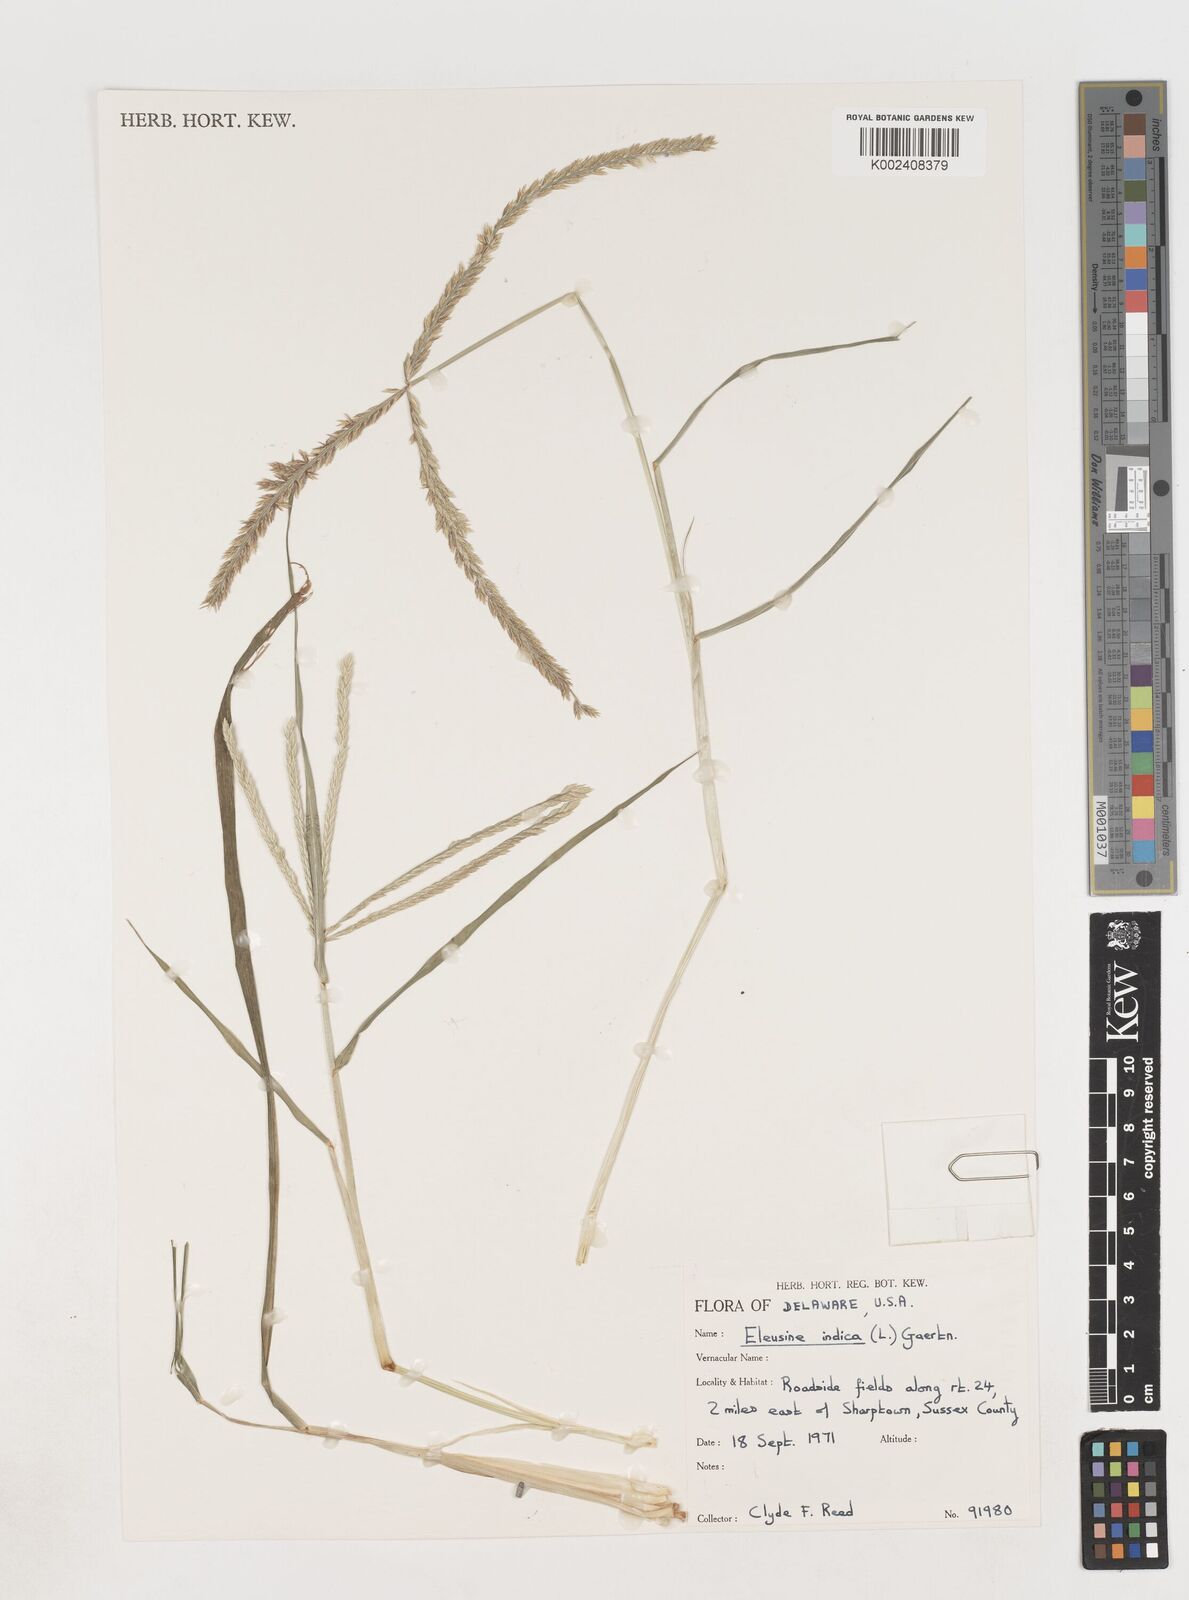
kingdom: Plantae
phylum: Tracheophyta
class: Liliopsida
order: Poales
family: Poaceae
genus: Eleusine
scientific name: Eleusine indica
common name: Yard-grass
